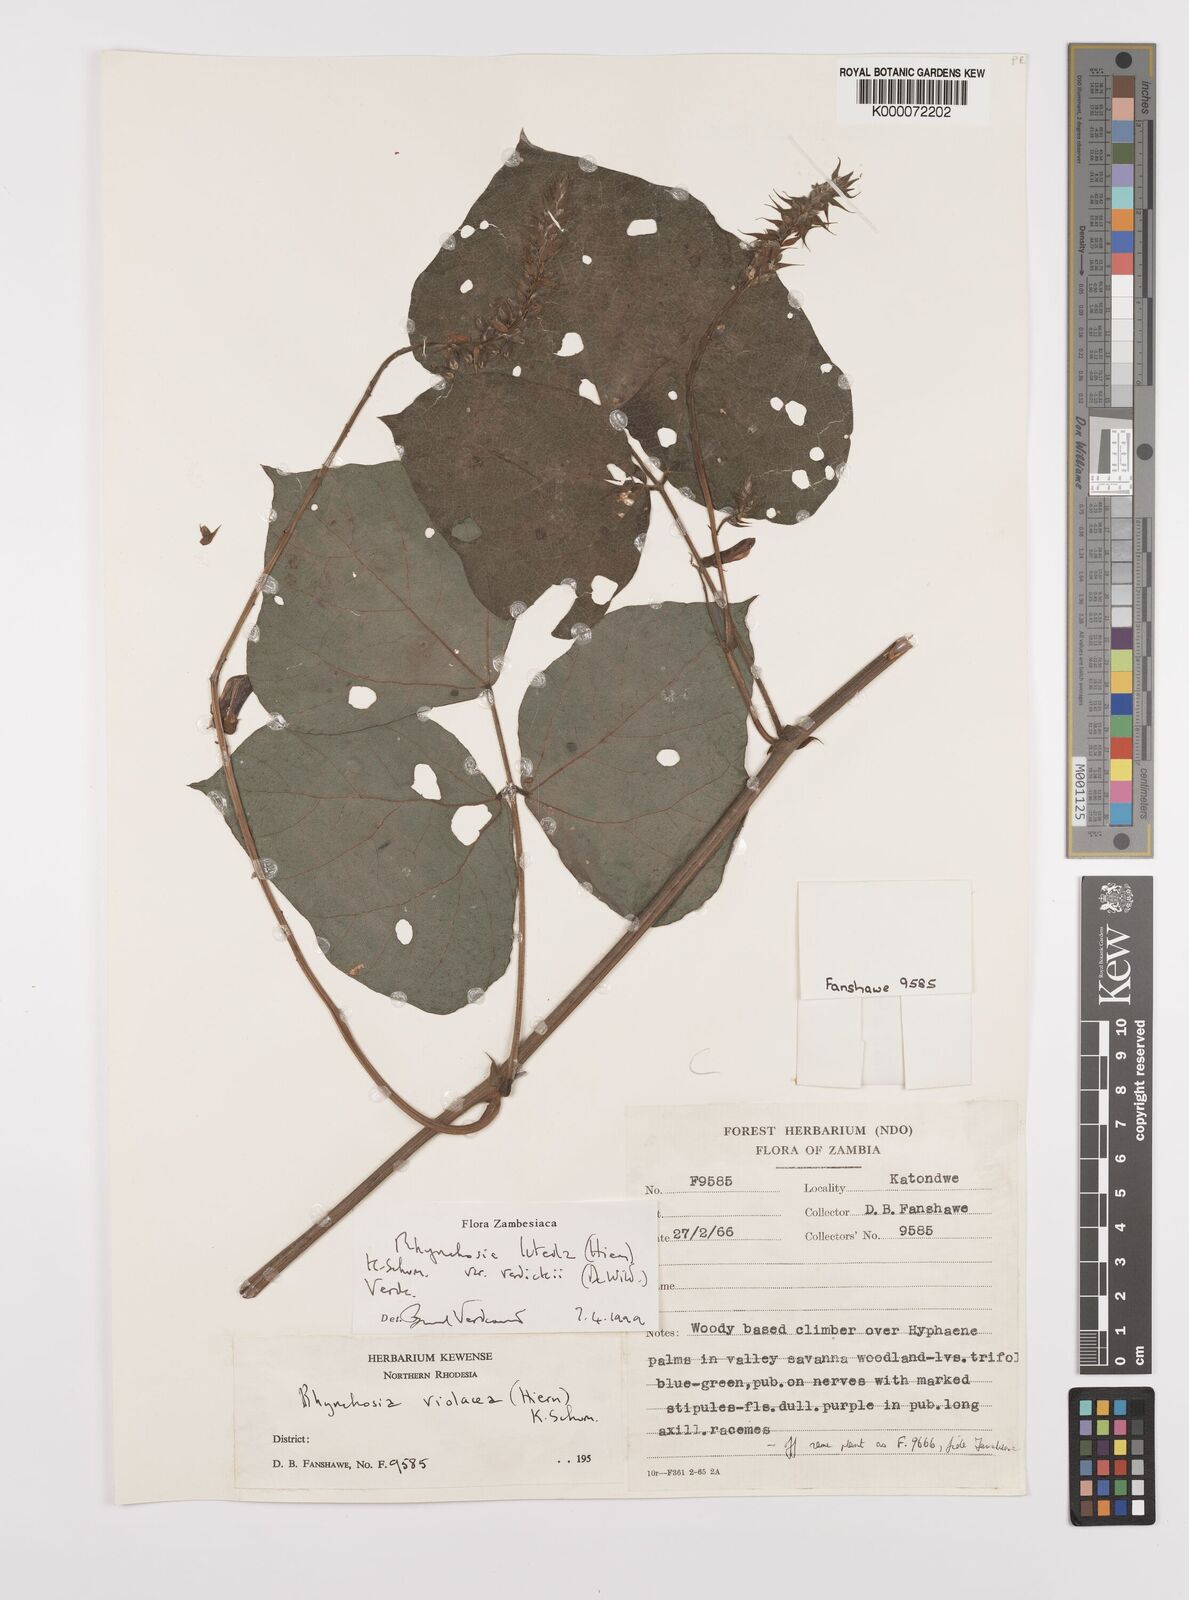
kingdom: Plantae
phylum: Tracheophyta
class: Magnoliopsida
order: Fabales
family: Fabaceae
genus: Rhynchosia
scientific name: Rhynchosia luteola
